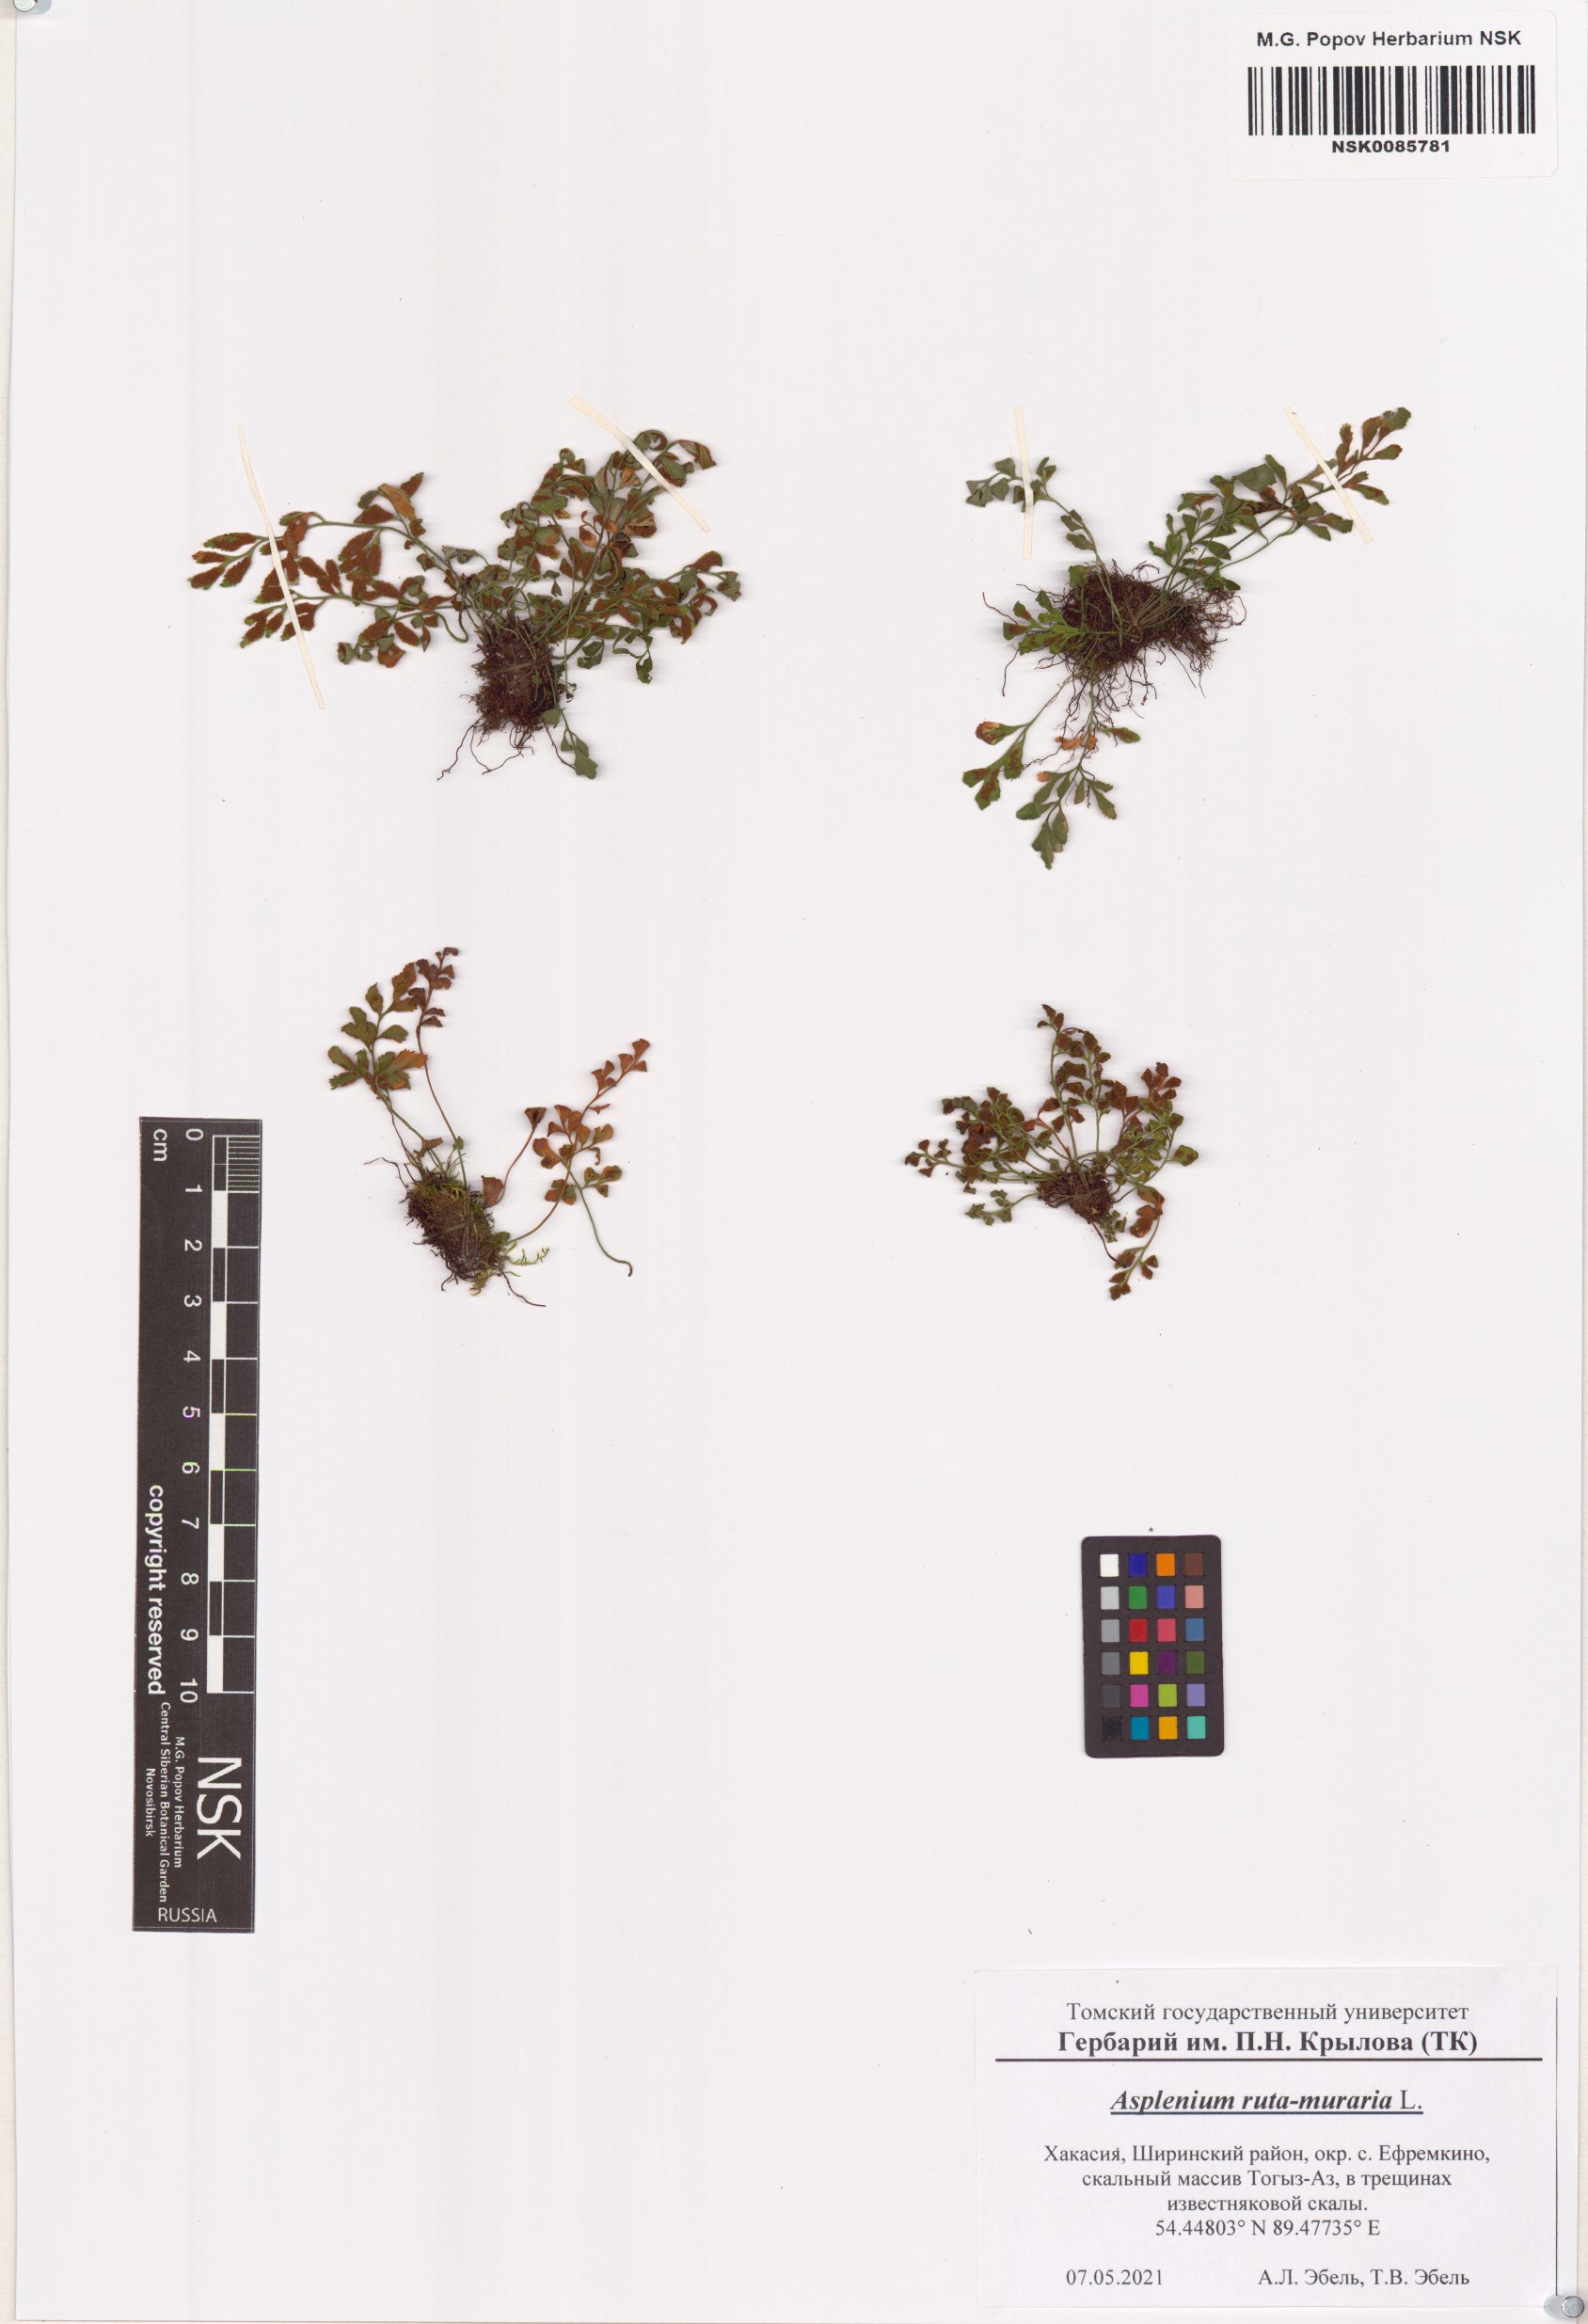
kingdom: Plantae
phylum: Tracheophyta
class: Polypodiopsida
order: Polypodiales
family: Aspleniaceae
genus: Asplenium
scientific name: Asplenium ruta-muraria
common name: Wall-rue
